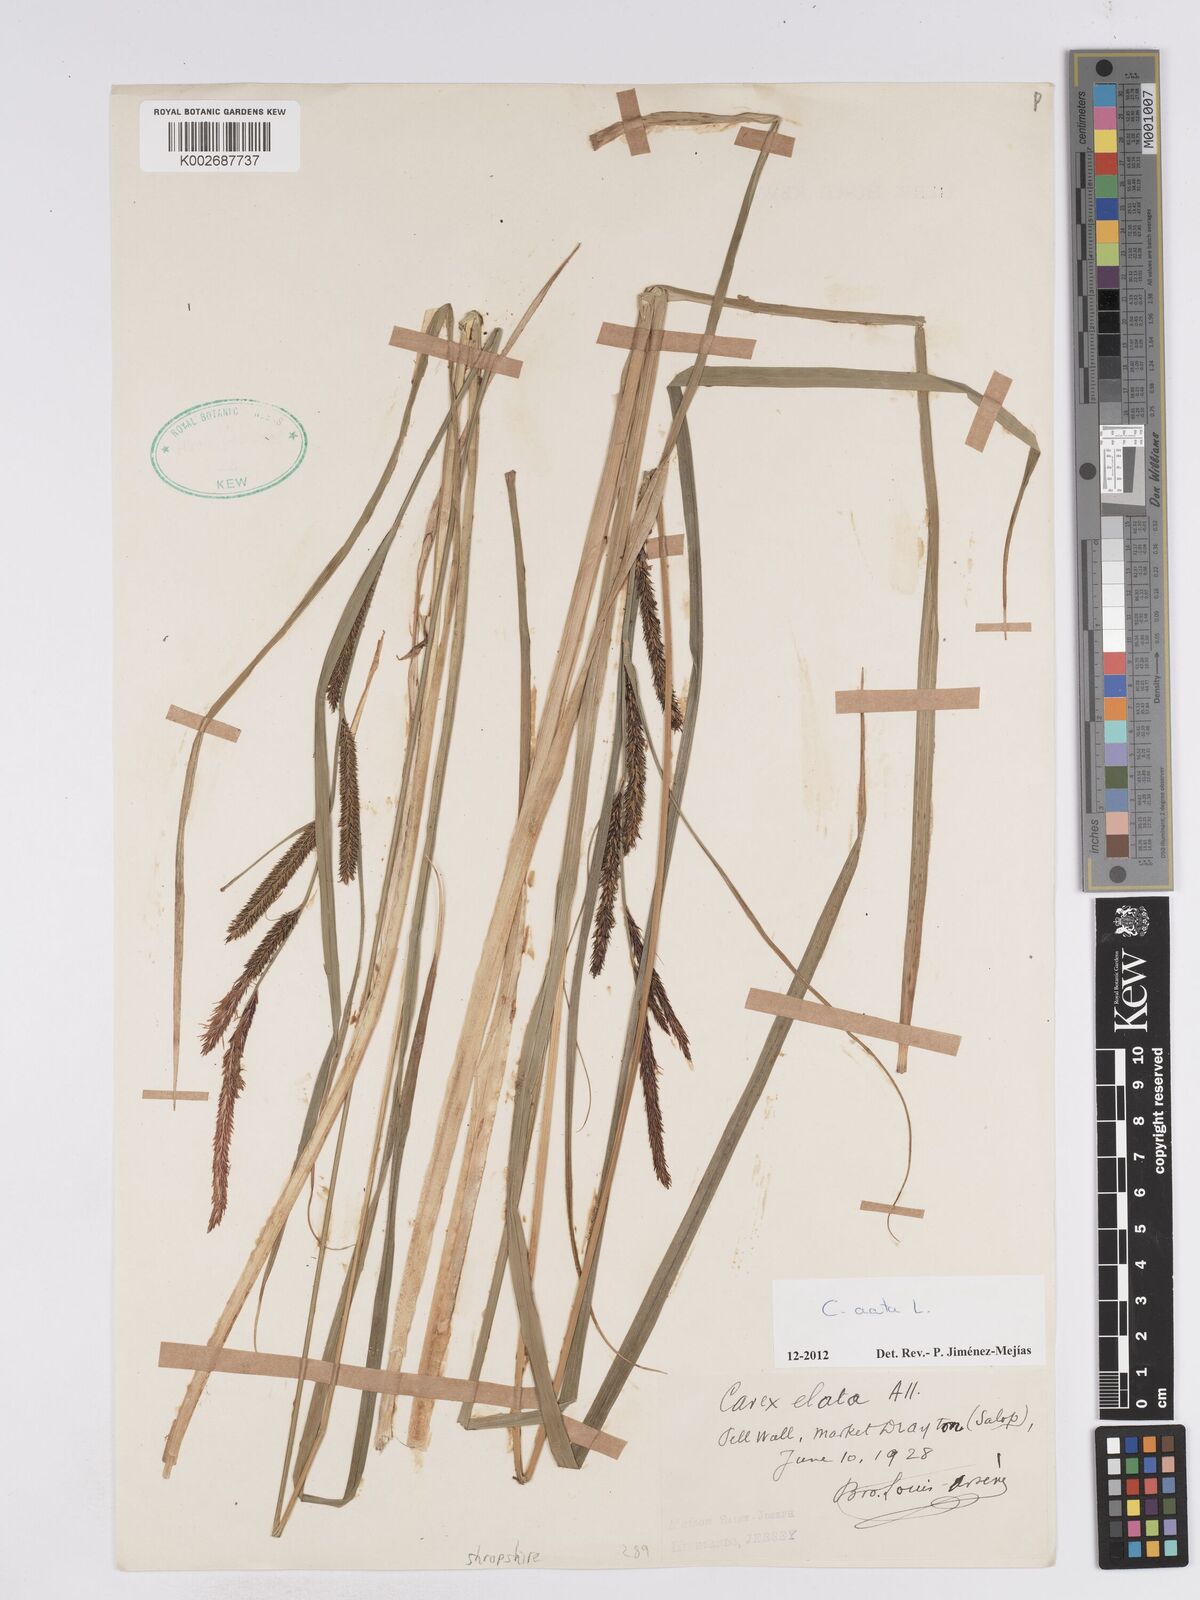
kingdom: Plantae
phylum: Tracheophyta
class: Liliopsida
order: Poales
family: Cyperaceae
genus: Carex
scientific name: Carex acuta
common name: Slender tufted-sedge
